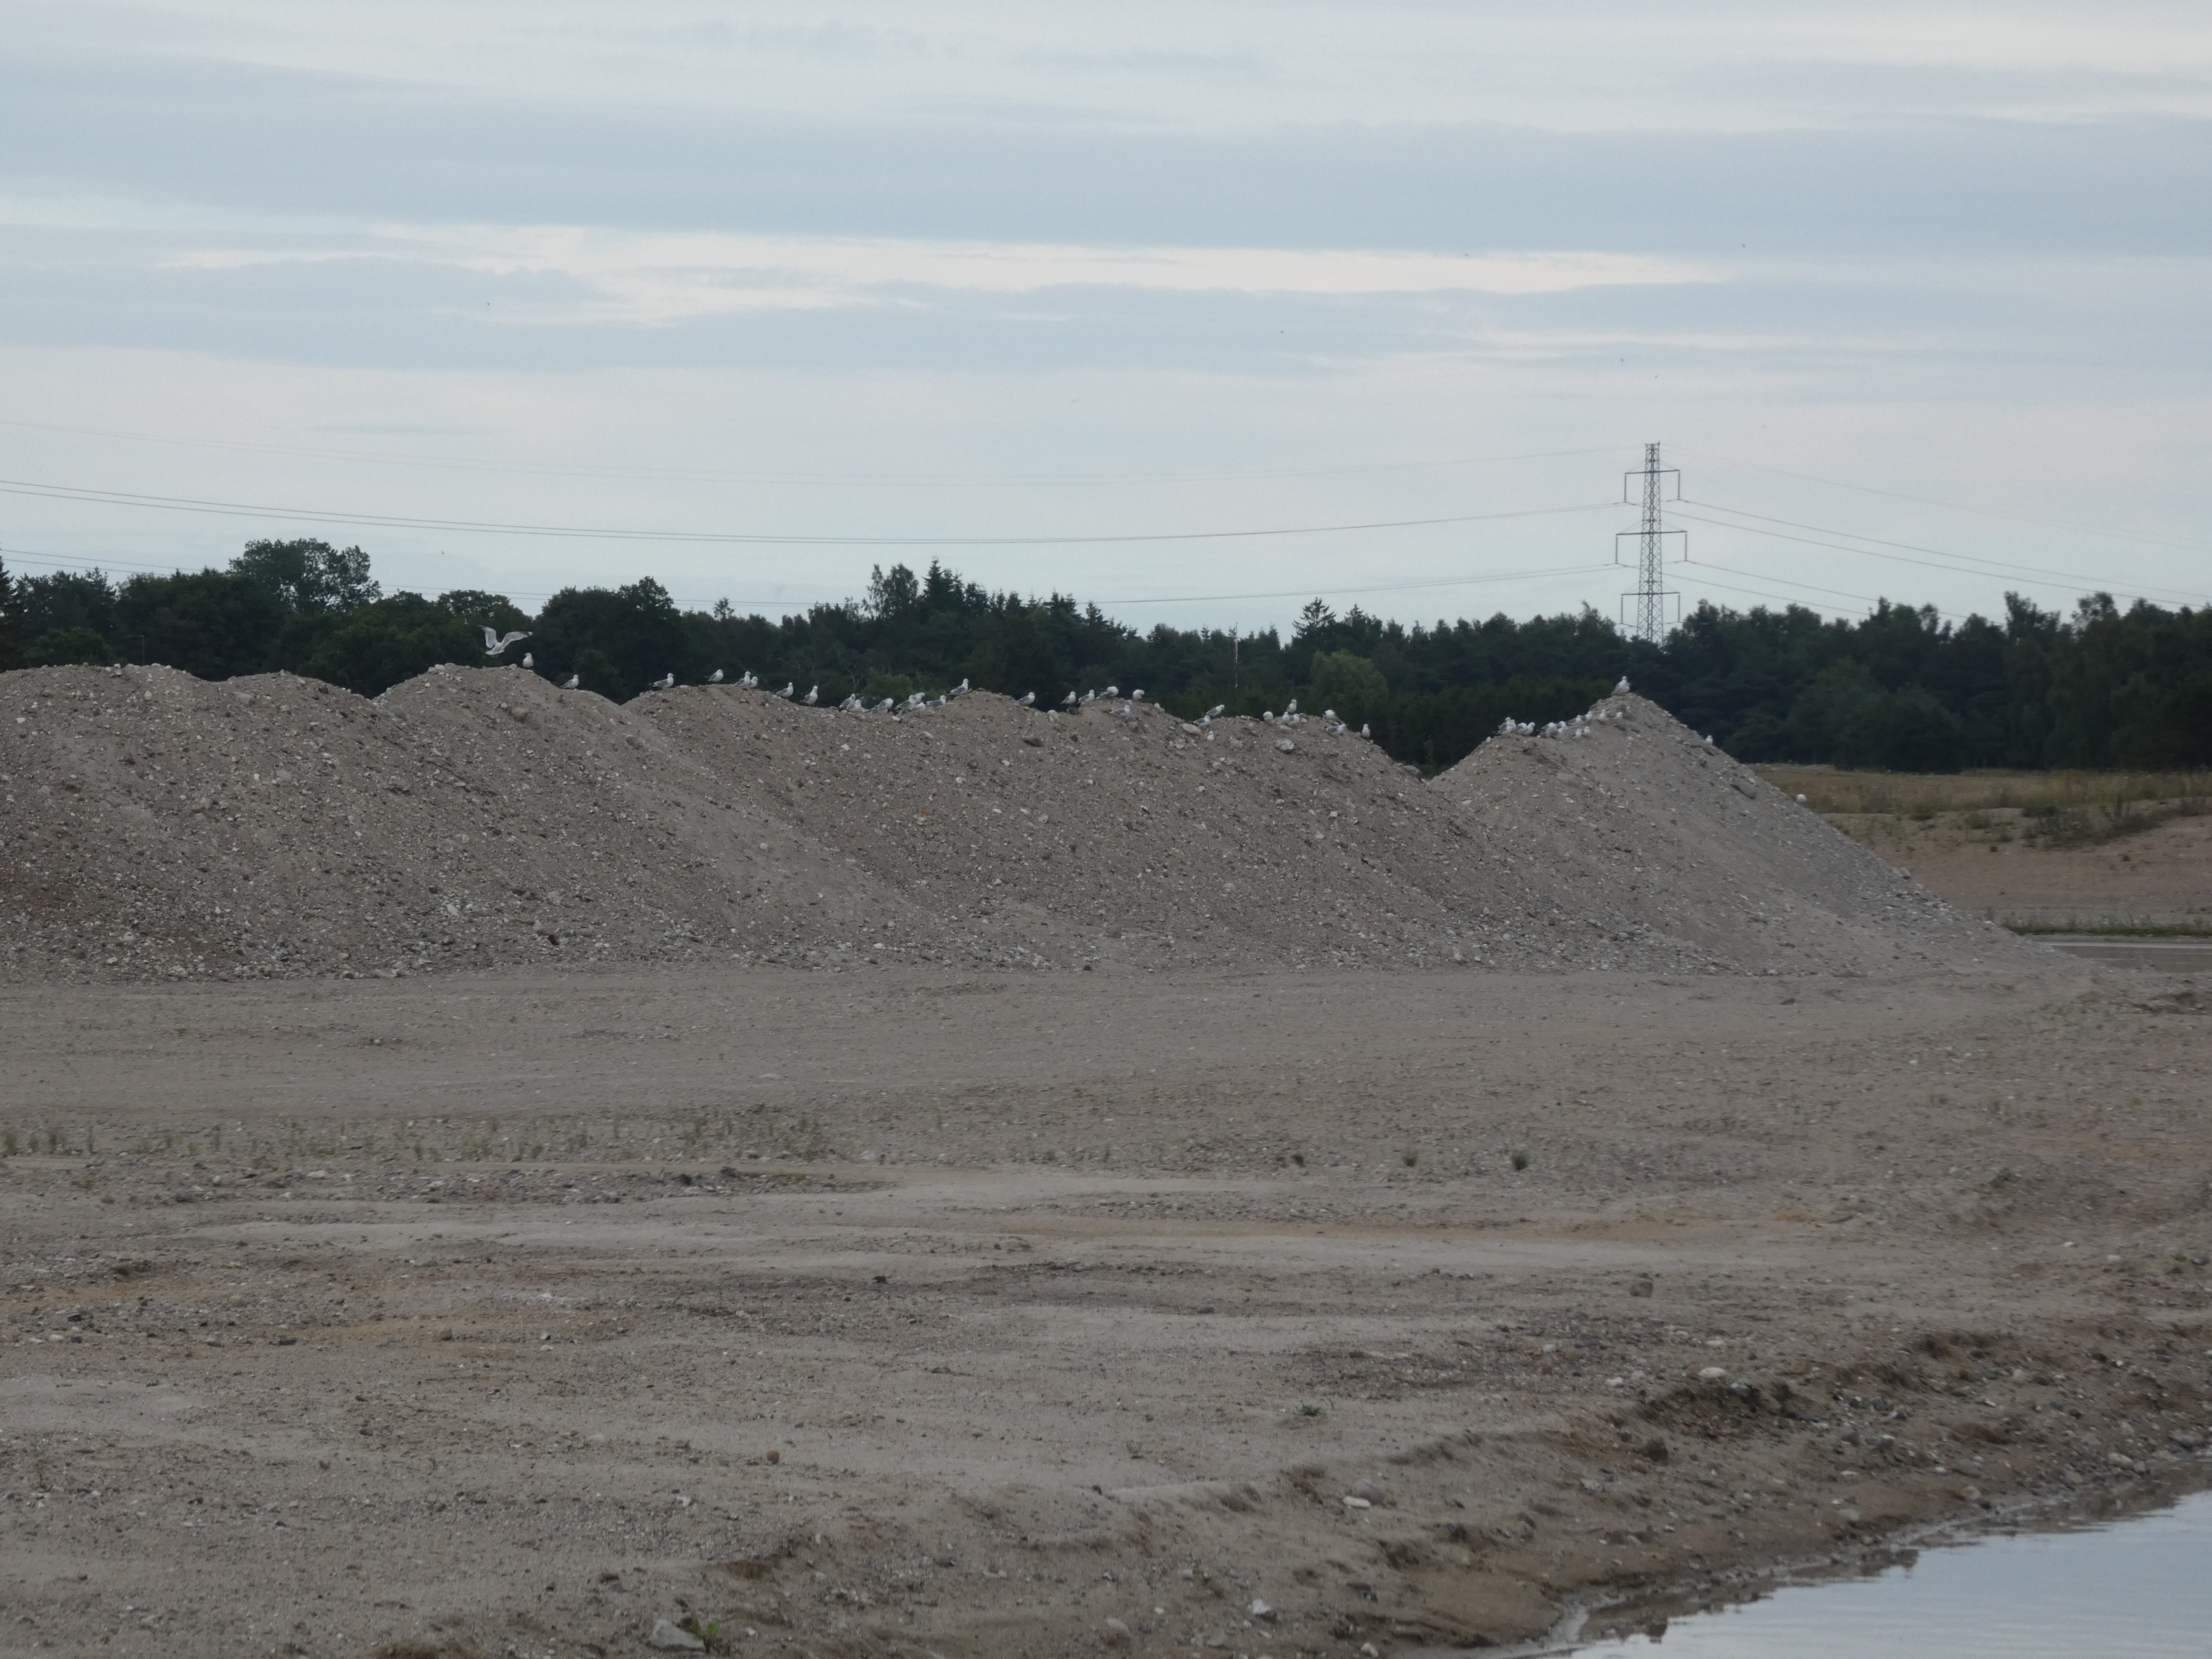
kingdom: Animalia
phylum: Chordata
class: Aves
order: Charadriiformes
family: Laridae
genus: Larus
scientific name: Larus canus
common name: Stormmåge
